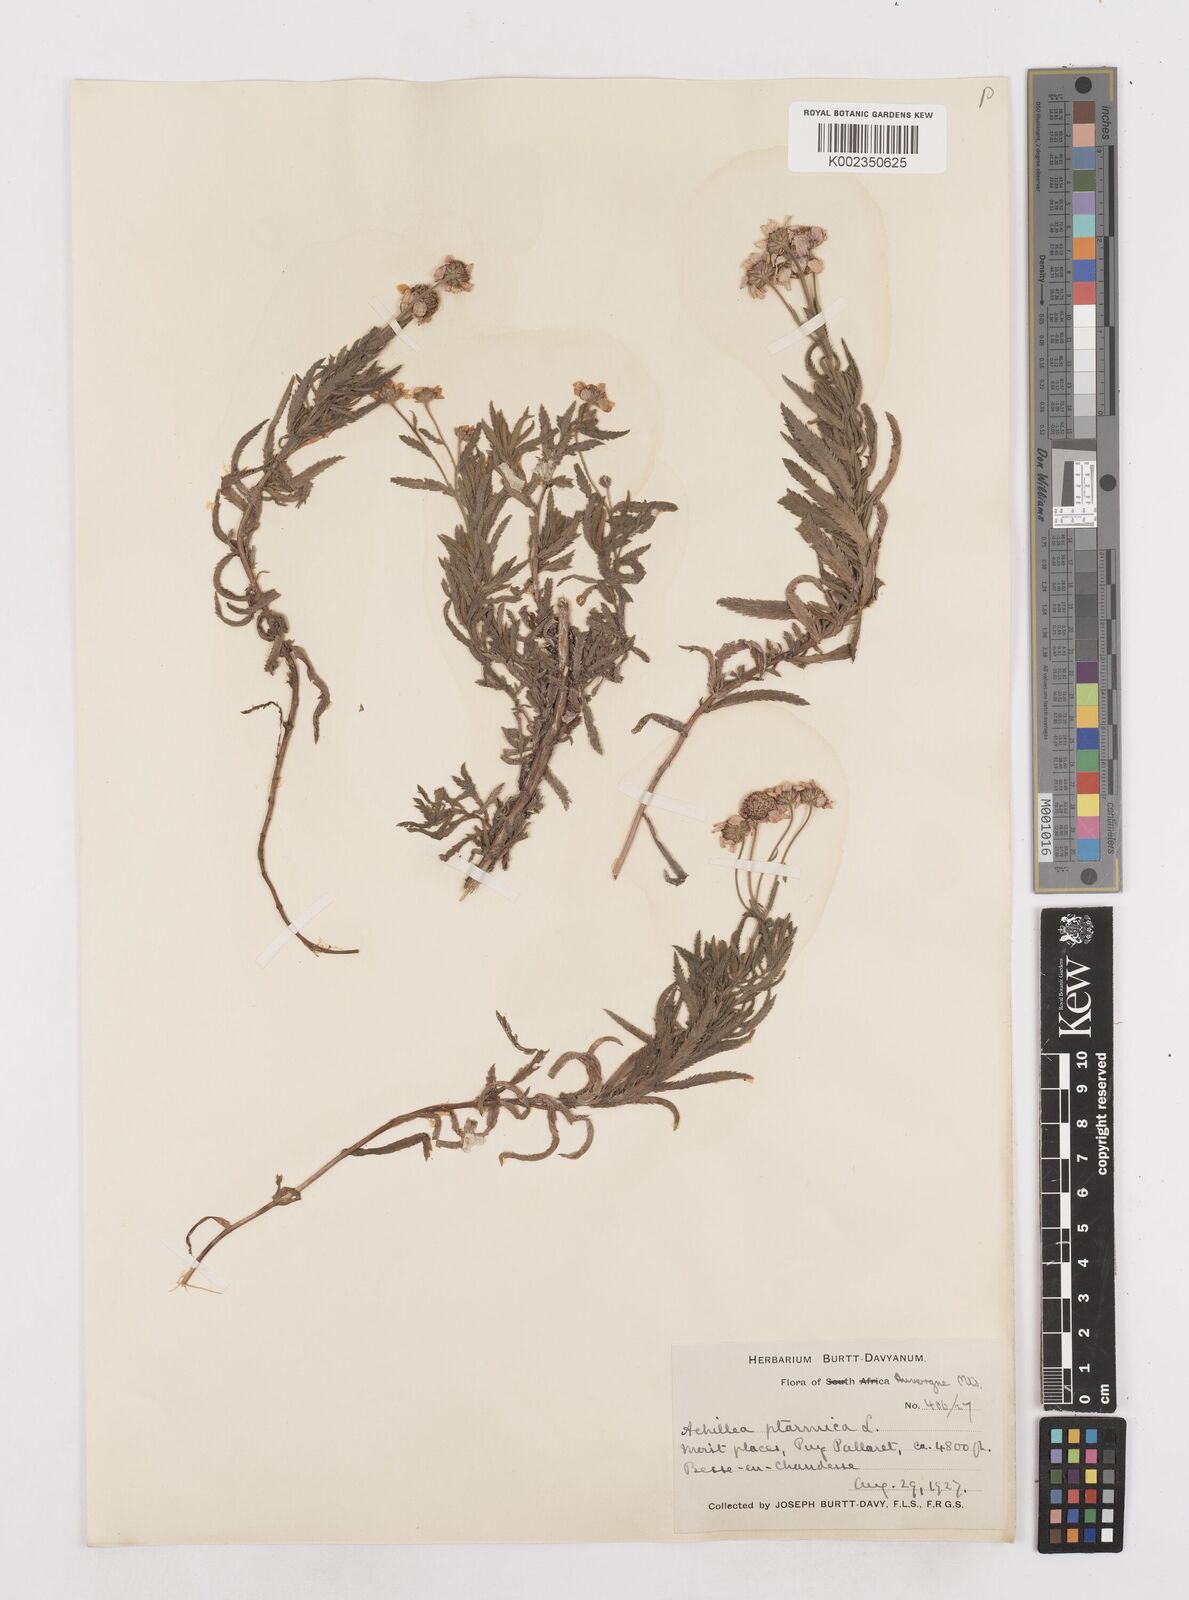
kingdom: Plantae
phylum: Tracheophyta
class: Magnoliopsida
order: Asterales
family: Asteraceae
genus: Achillea
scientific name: Achillea ptarmica
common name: Sneezeweed
